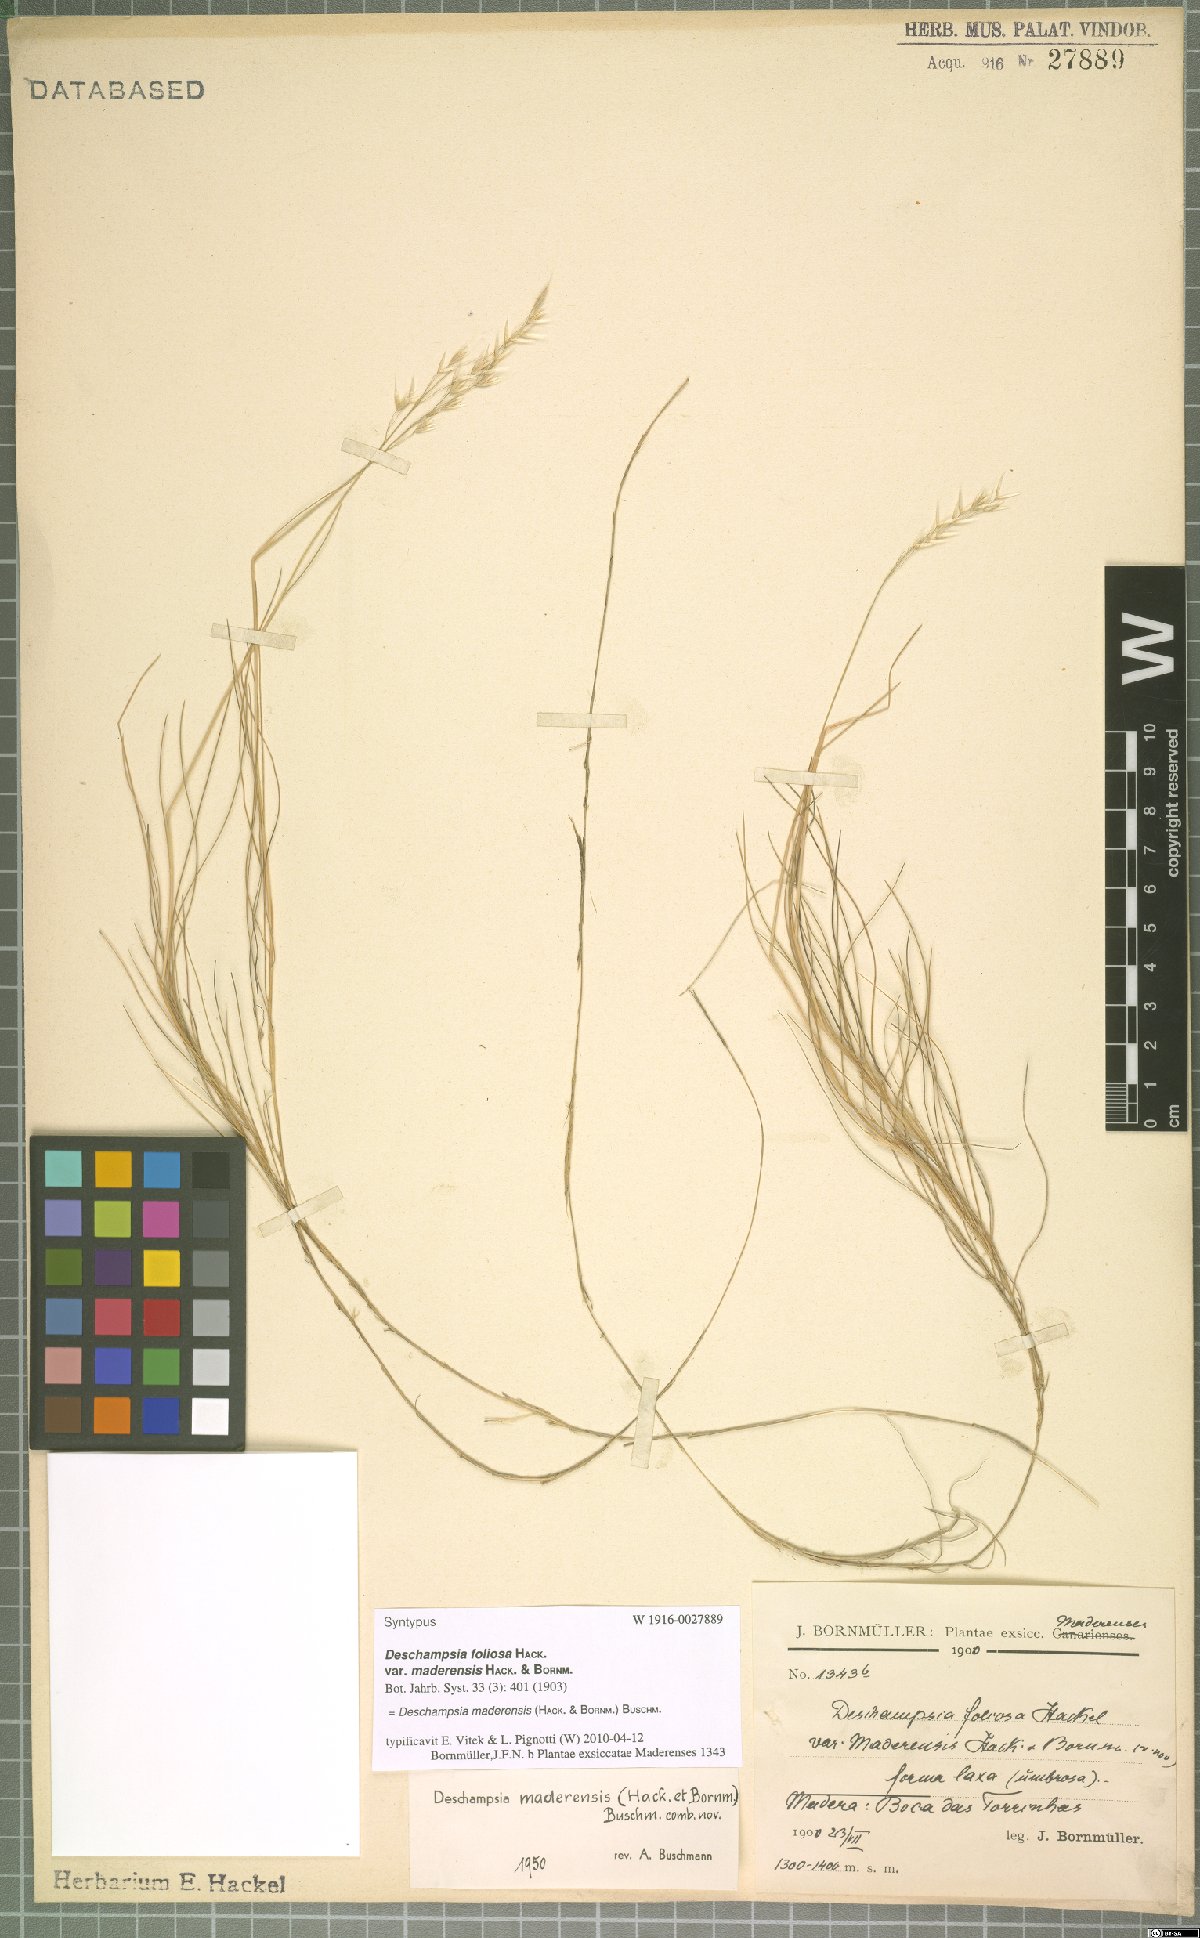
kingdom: Plantae
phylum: Tracheophyta
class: Liliopsida
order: Poales
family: Poaceae
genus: Avenella
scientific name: Avenella flexuosa
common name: Wavy hairgrass
